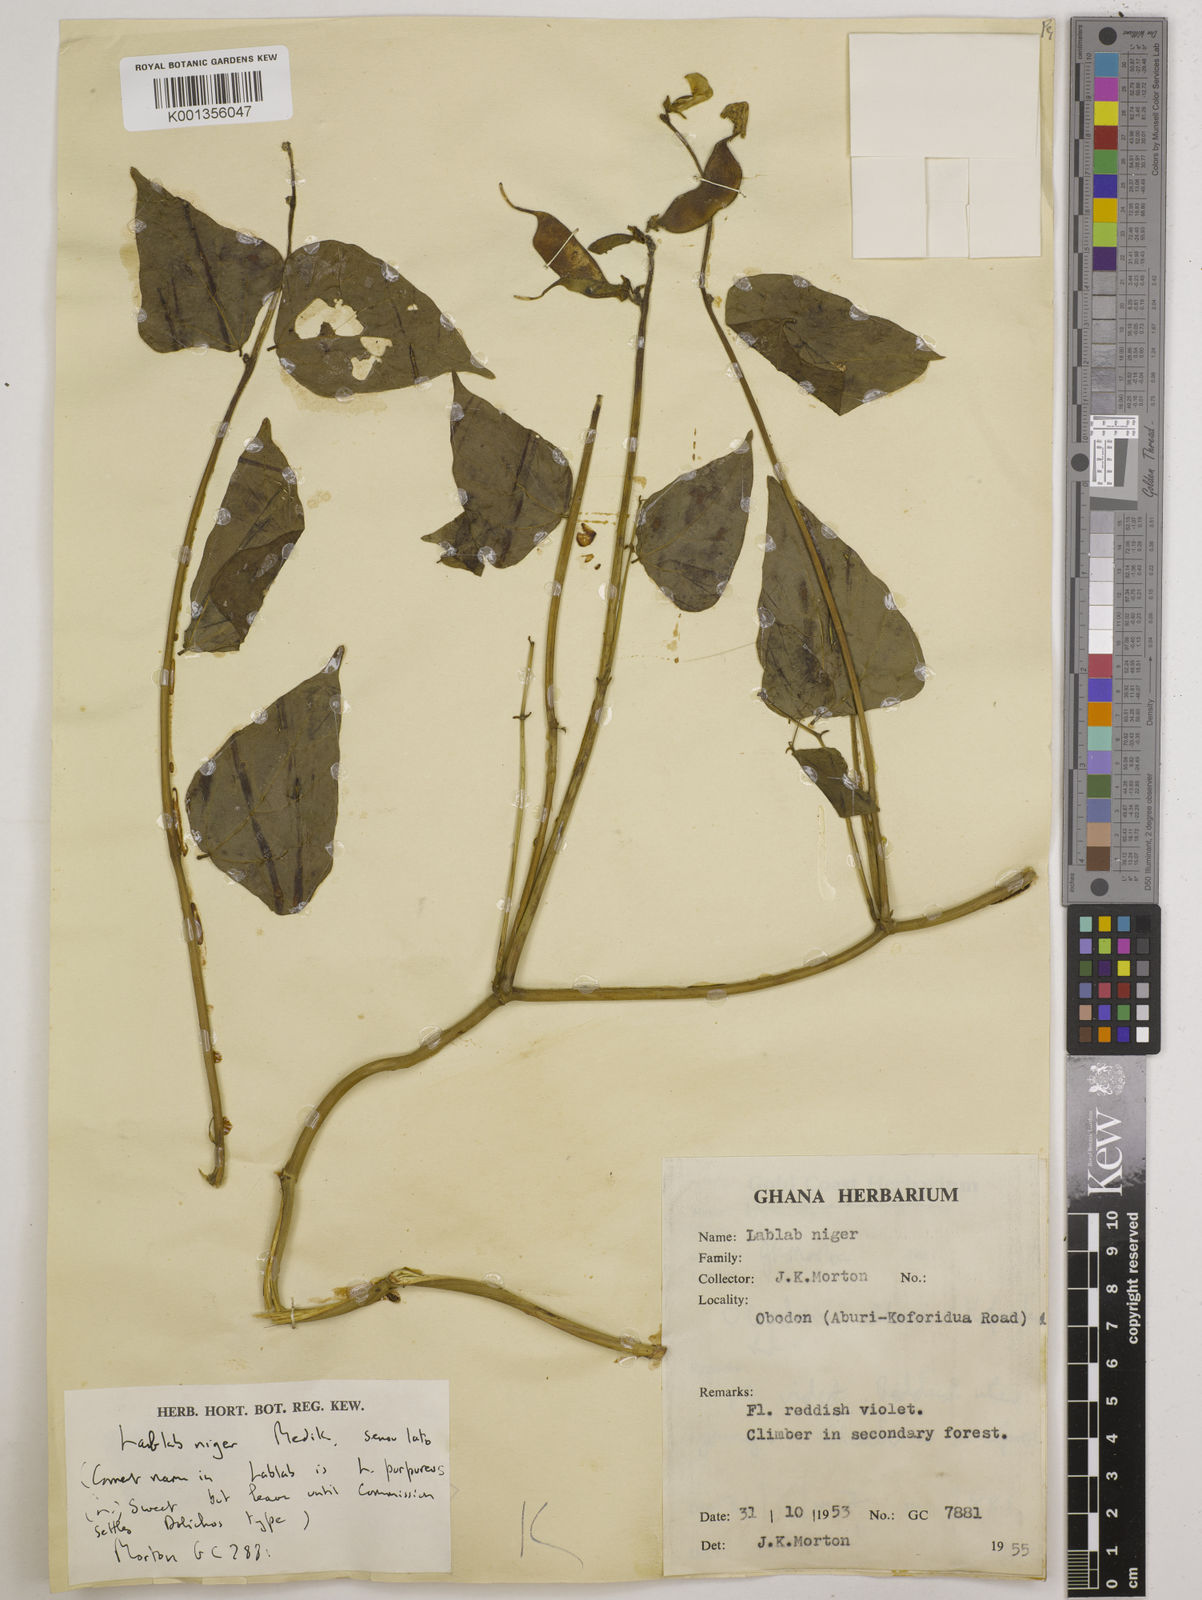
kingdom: Plantae
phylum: Tracheophyta
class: Magnoliopsida
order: Fabales
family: Fabaceae
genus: Lablab
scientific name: Lablab purpureus
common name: Lablab-bean
